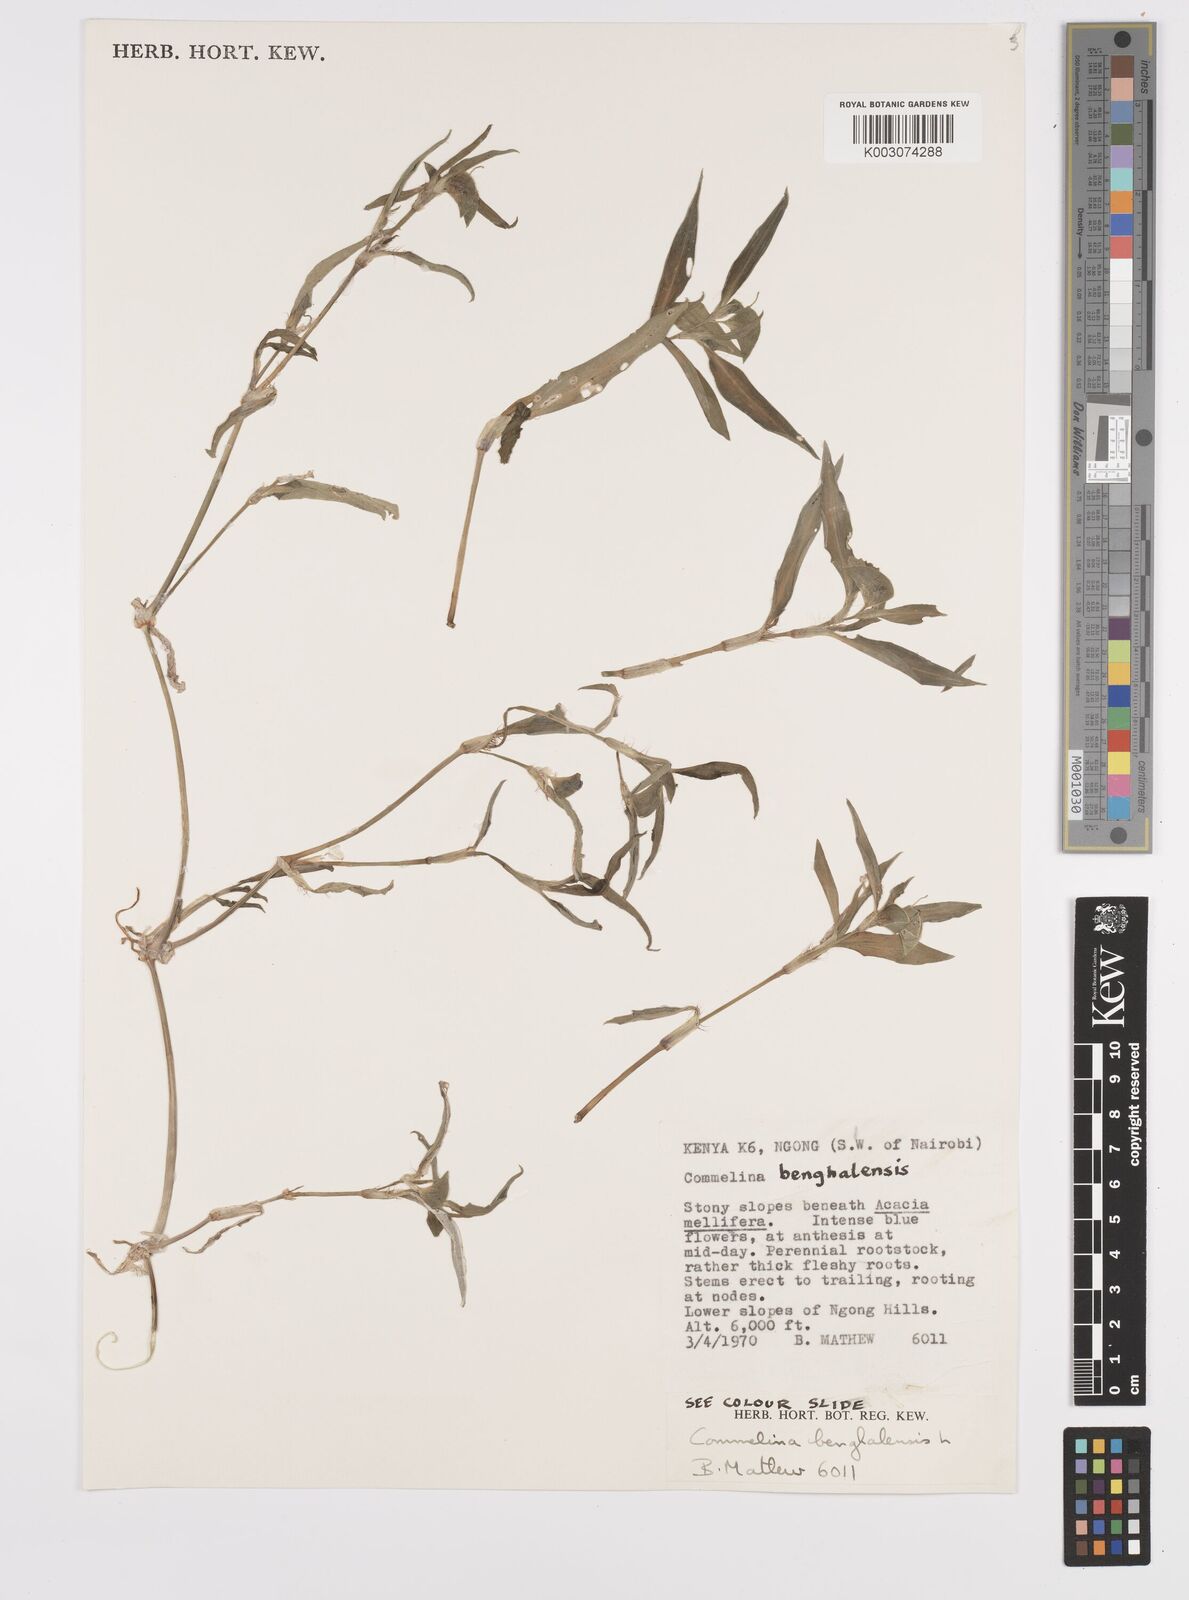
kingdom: Plantae
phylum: Tracheophyta
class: Liliopsida
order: Commelinales
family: Commelinaceae
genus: Commelina
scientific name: Commelina benghalensis
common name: Jio
